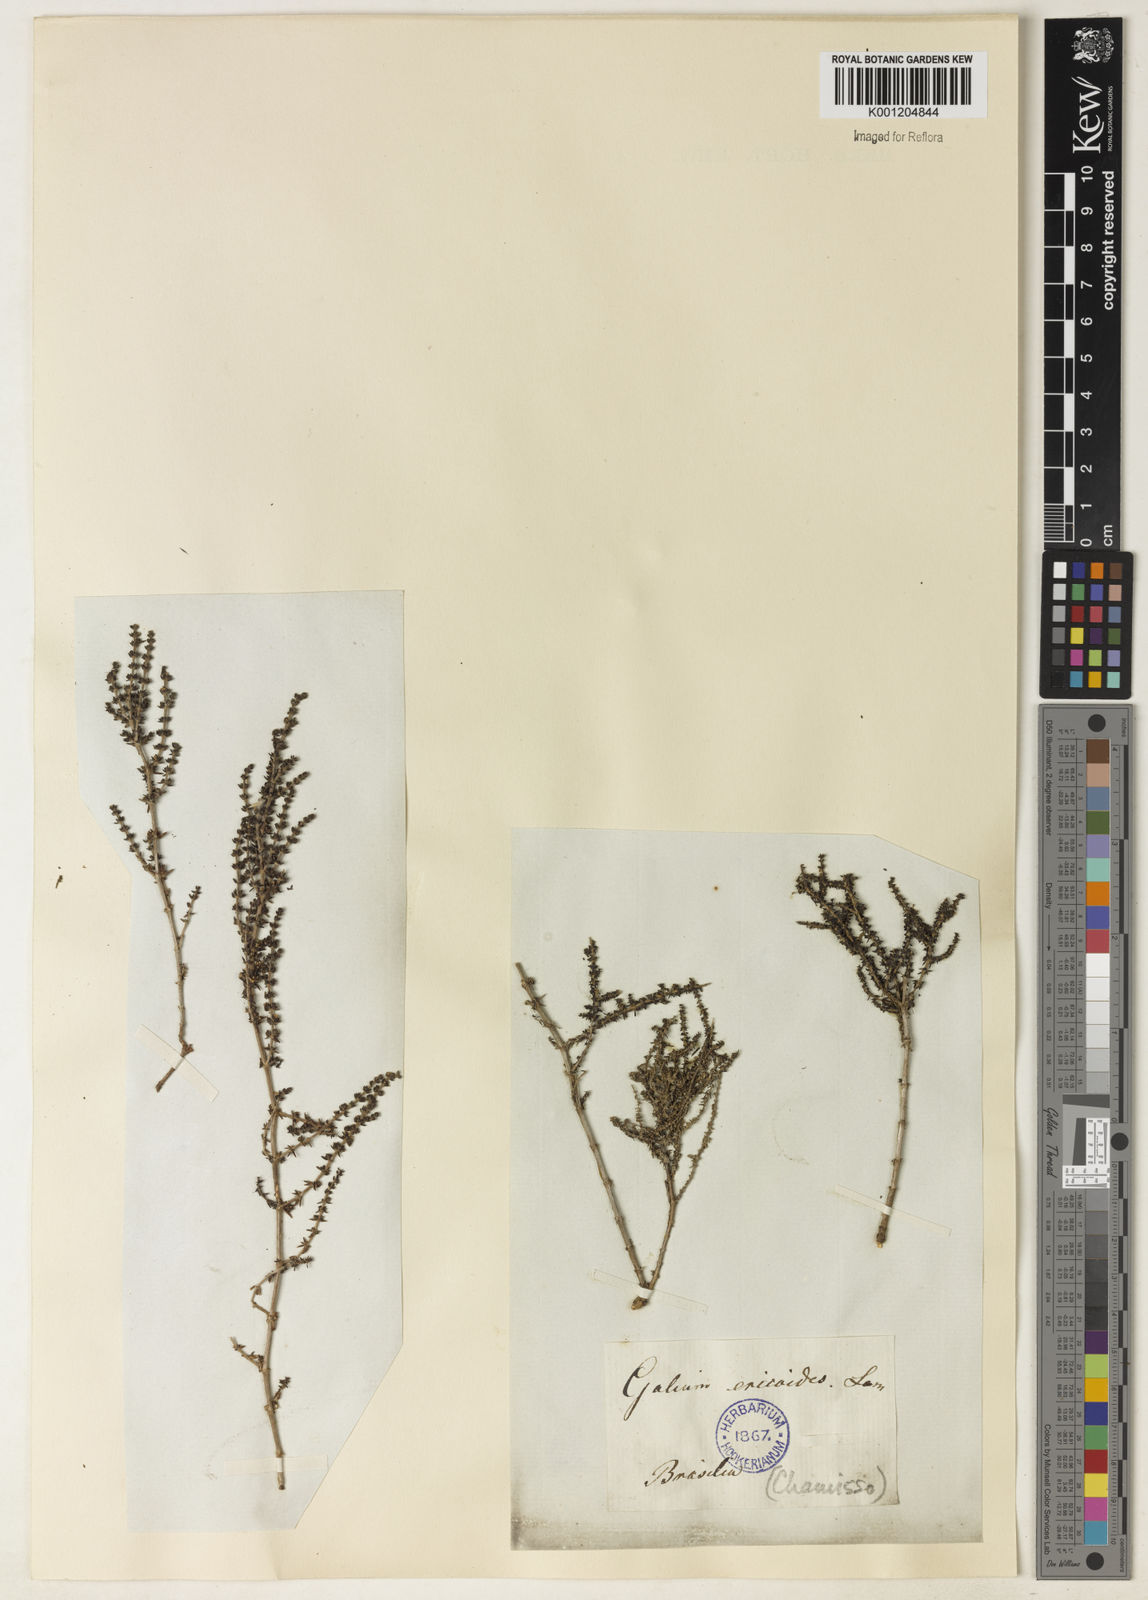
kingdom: Plantae
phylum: Tracheophyta
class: Magnoliopsida
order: Gentianales
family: Rubiaceae
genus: Galium
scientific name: Galium ericoides
